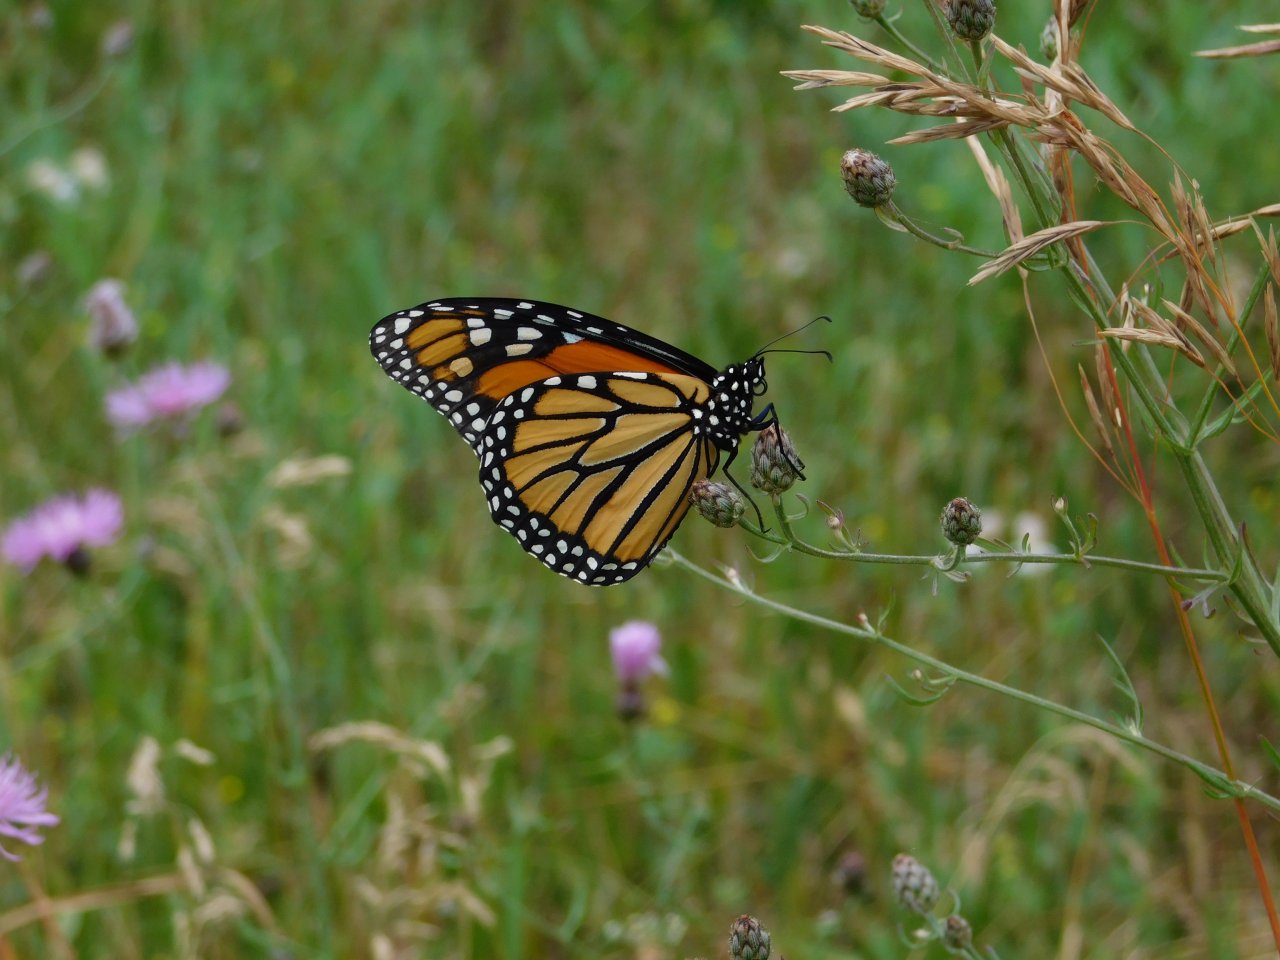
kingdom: Animalia
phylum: Arthropoda
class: Insecta
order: Lepidoptera
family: Nymphalidae
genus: Danaus
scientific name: Danaus plexippus
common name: Monarch
